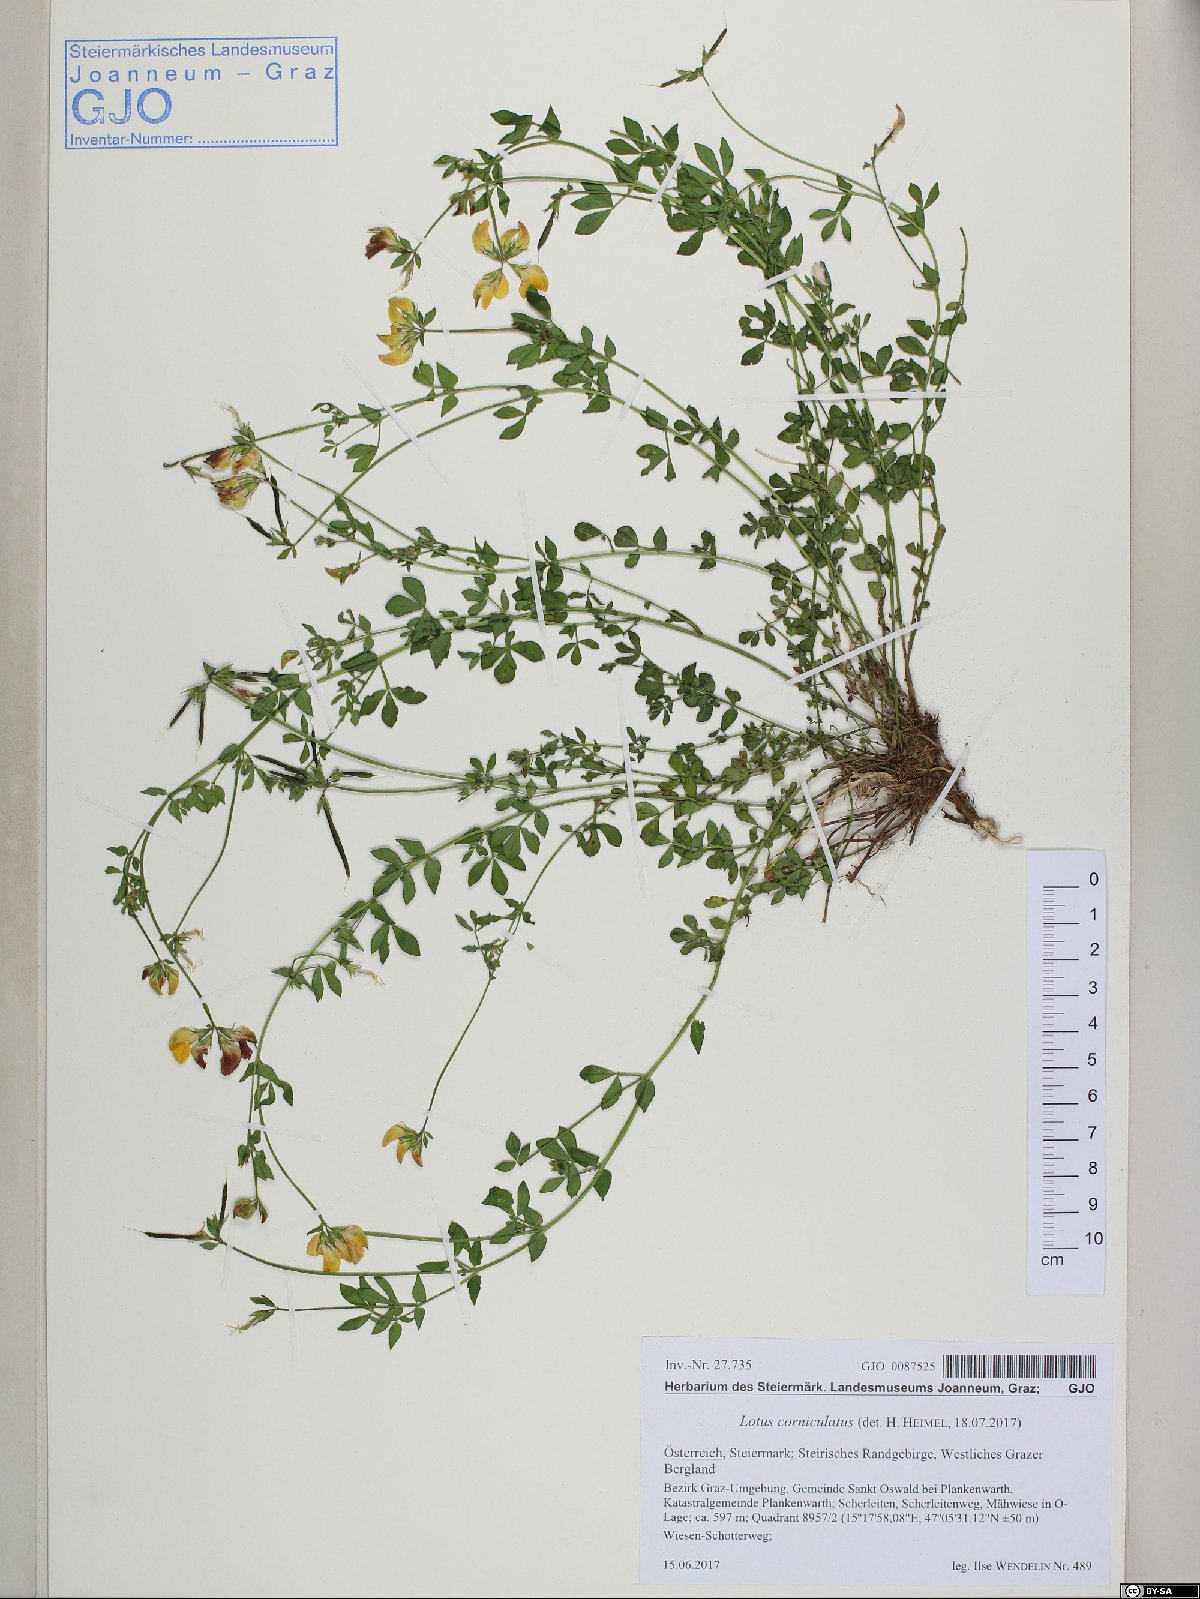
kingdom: Plantae
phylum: Tracheophyta
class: Magnoliopsida
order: Fabales
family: Fabaceae
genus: Lotus
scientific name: Lotus corniculatus
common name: Common bird's-foot-trefoil
